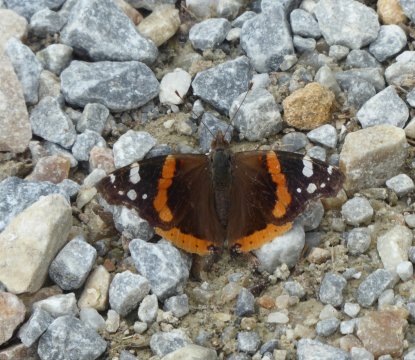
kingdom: Animalia
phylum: Arthropoda
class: Insecta
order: Lepidoptera
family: Nymphalidae
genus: Vanessa
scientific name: Vanessa atalanta
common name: Red Admiral
